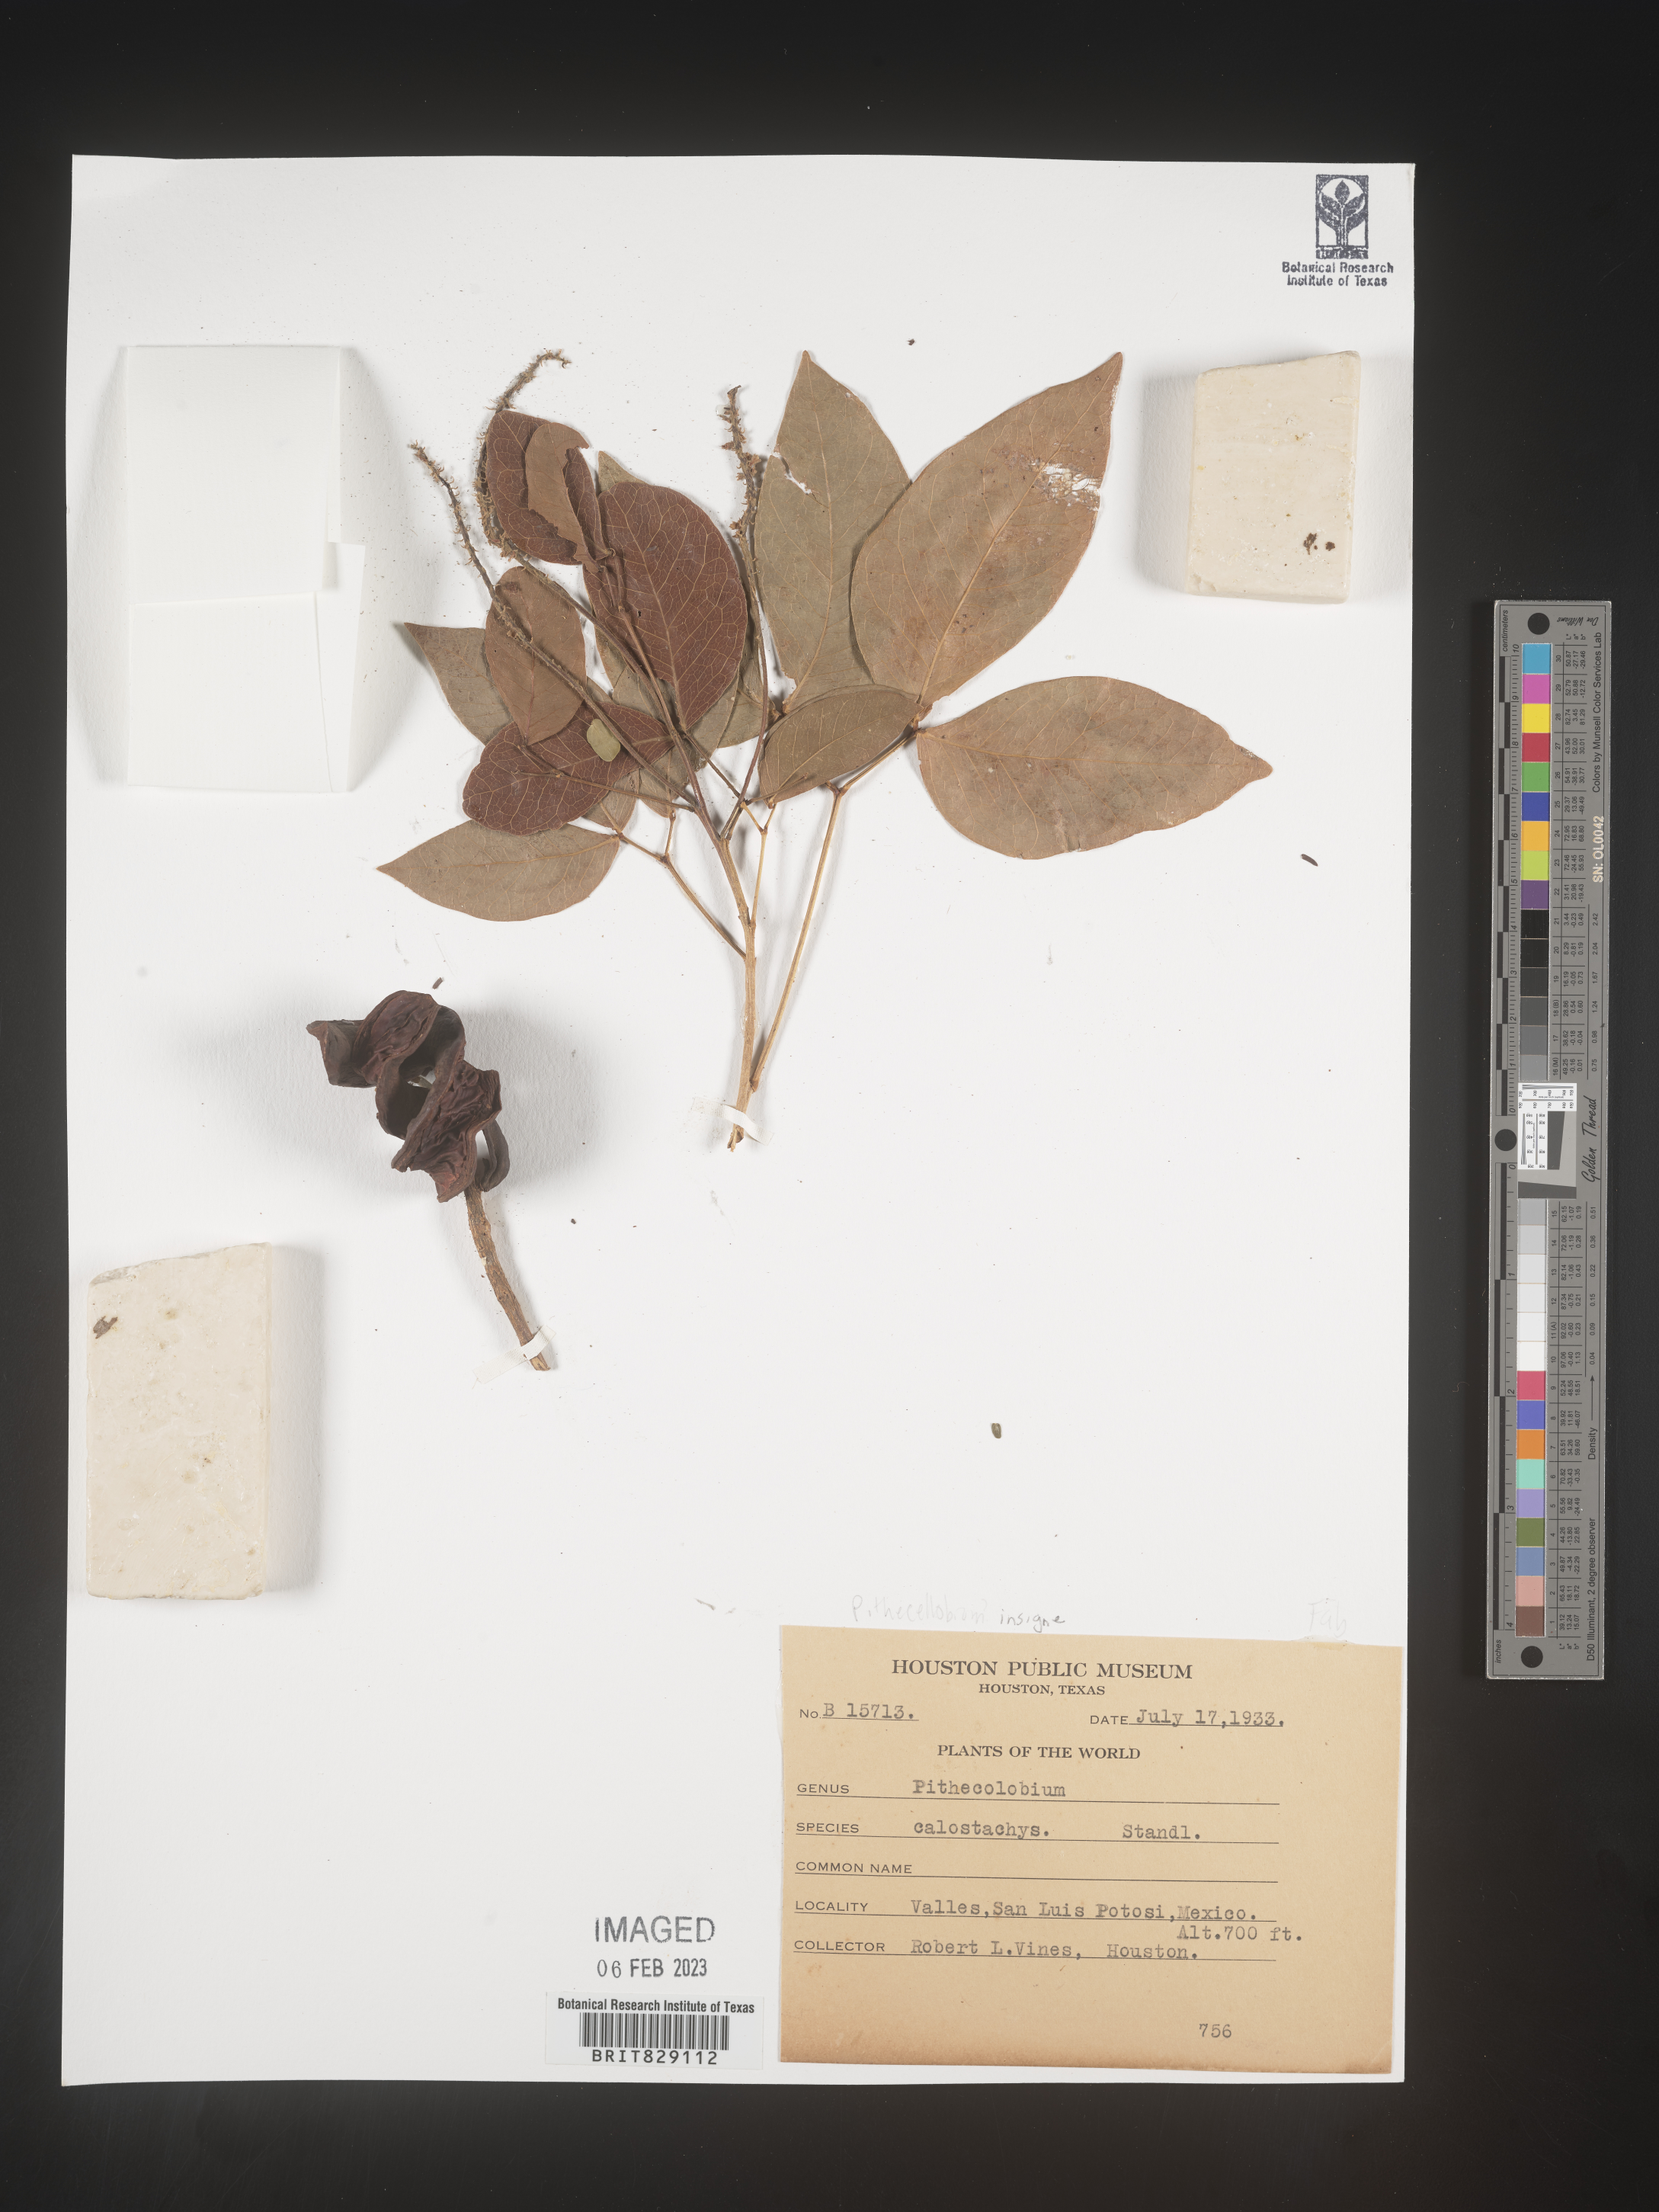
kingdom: Plantae
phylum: Tracheophyta
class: Magnoliopsida
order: Fabales
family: Fabaceae
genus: Pithecellobium
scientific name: Pithecellobium
